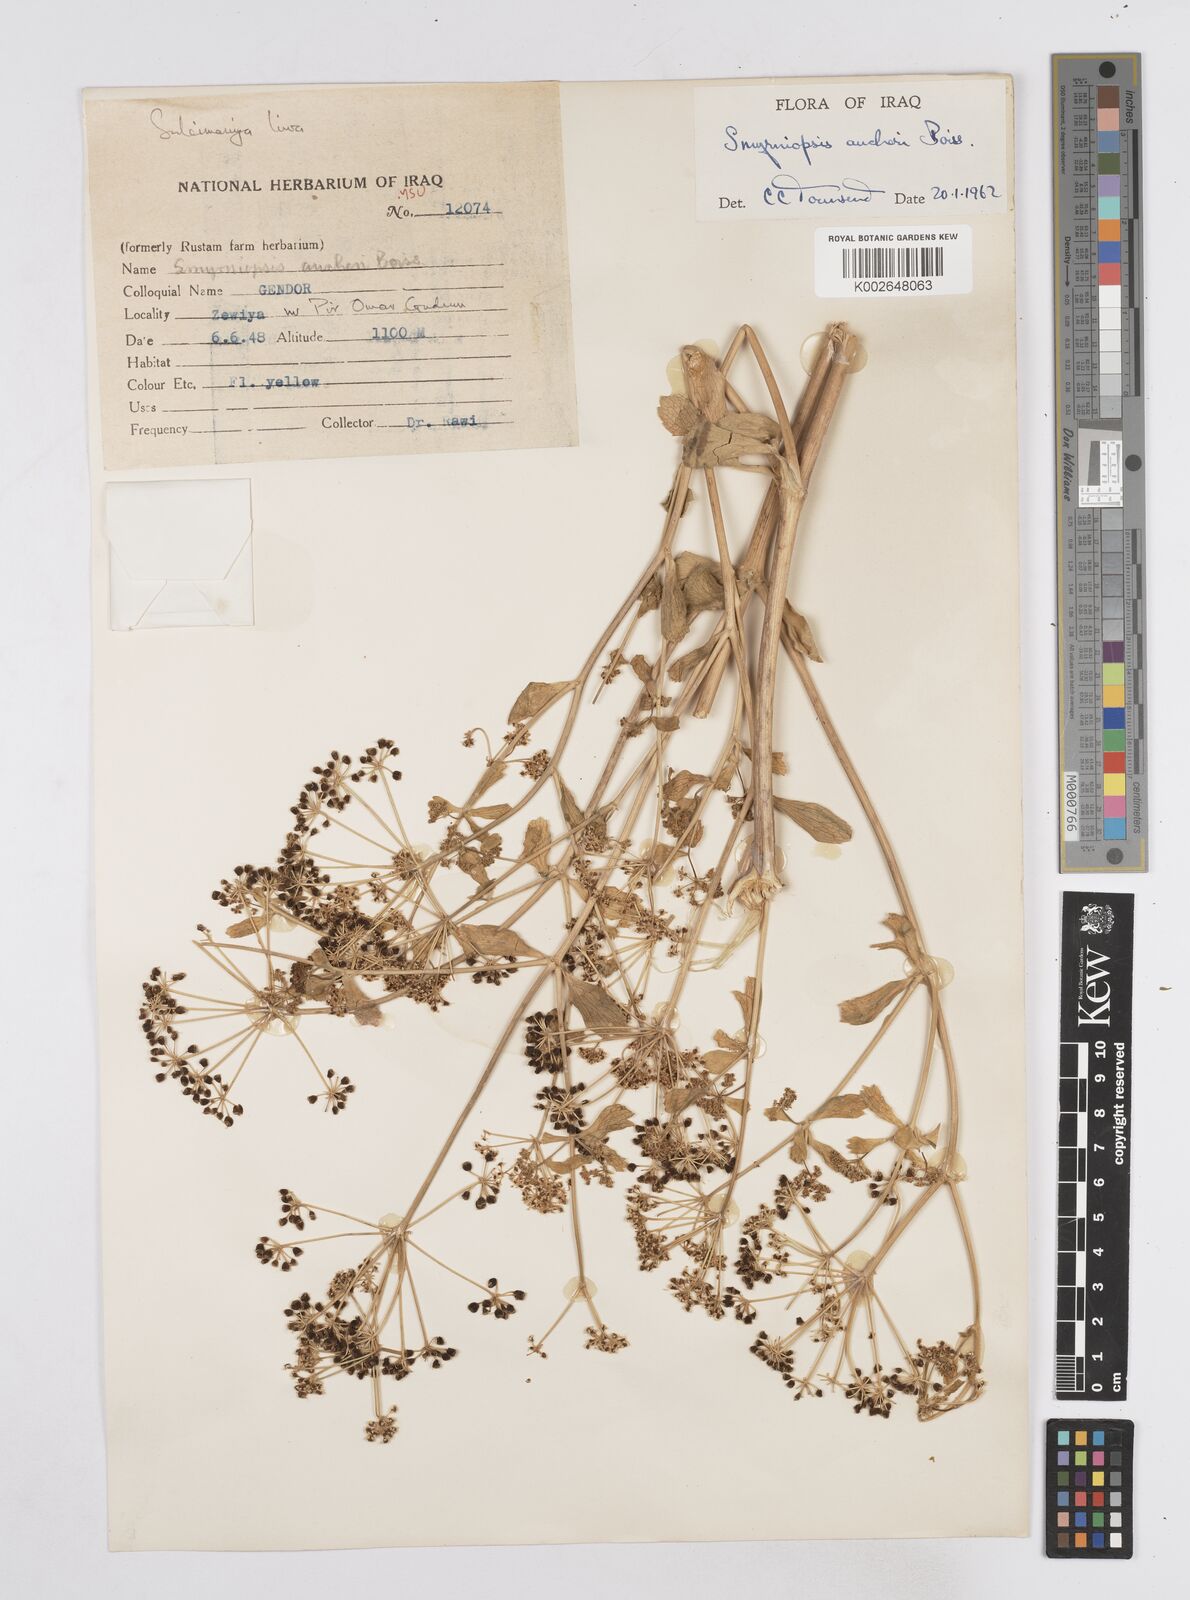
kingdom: Plantae
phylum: Tracheophyta
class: Magnoliopsida
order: Apiales
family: Apiaceae
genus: Smyrniopsis
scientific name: Smyrniopsis aucheri
